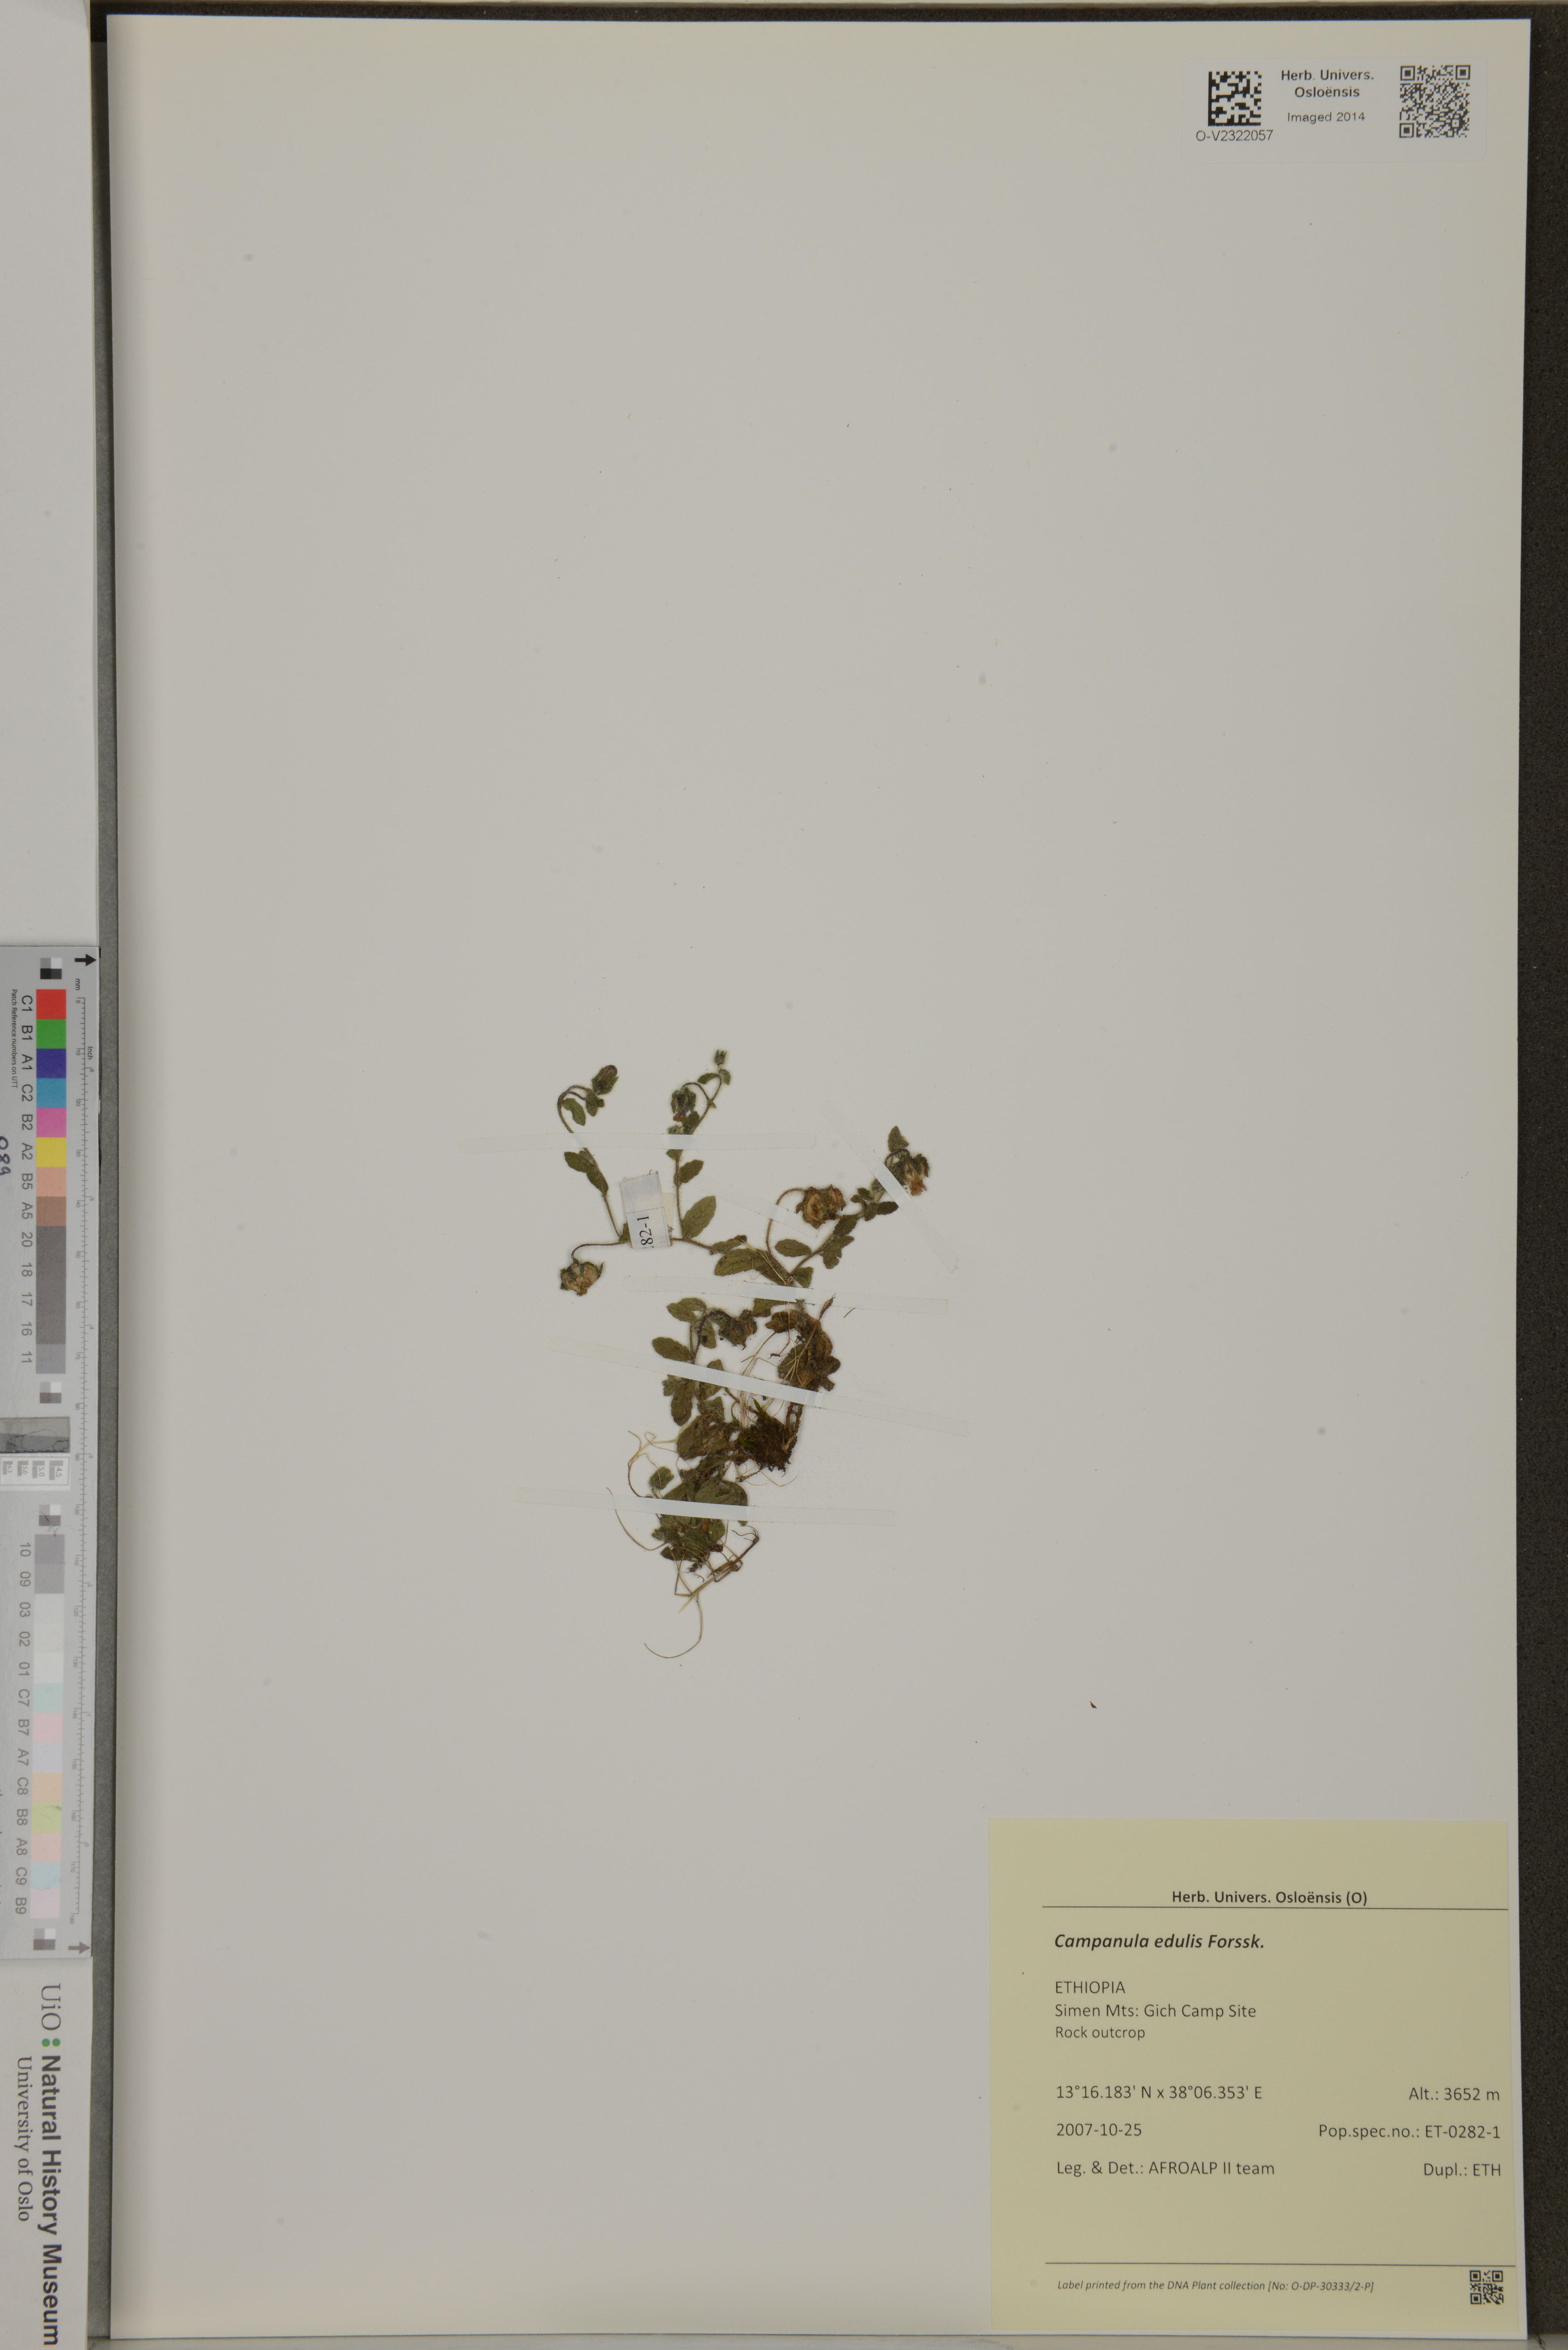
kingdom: Plantae
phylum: Tracheophyta
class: Magnoliopsida
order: Asterales
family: Campanulaceae
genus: Campanula
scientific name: Campanula edulis
